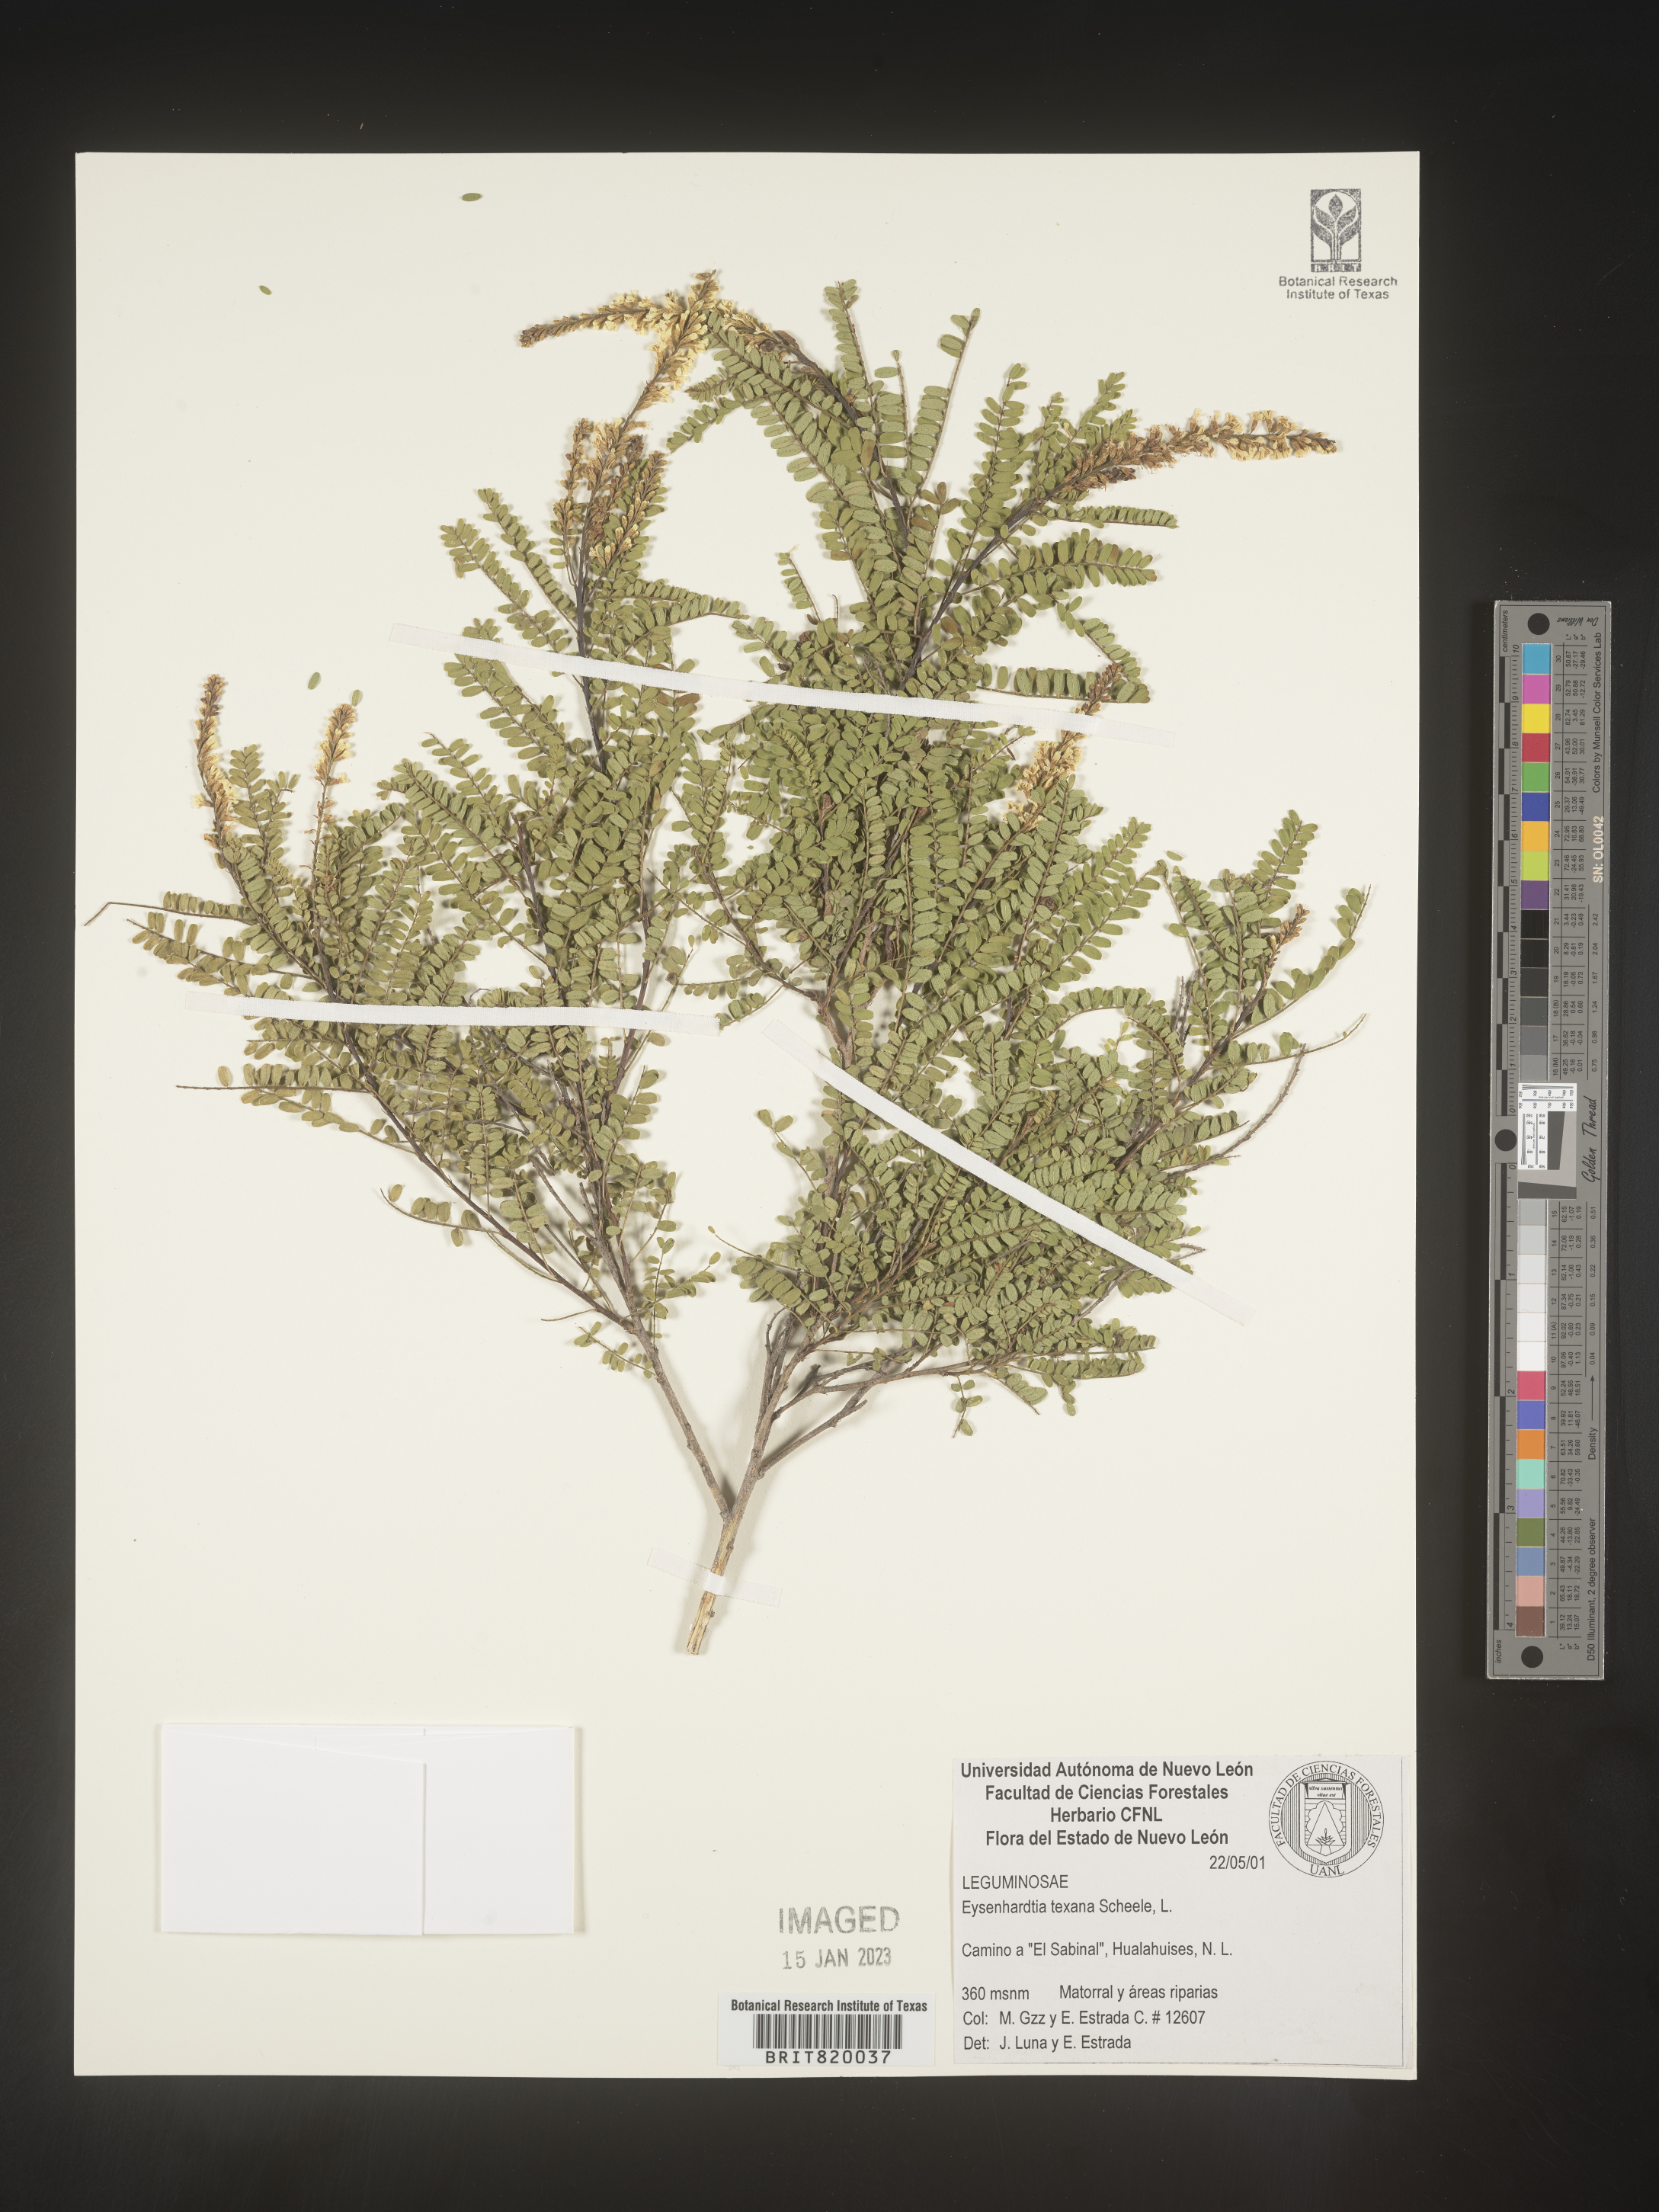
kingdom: Plantae
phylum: Tracheophyta
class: Magnoliopsida
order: Fabales
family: Fabaceae
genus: Eysenhardtia
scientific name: Eysenhardtia
